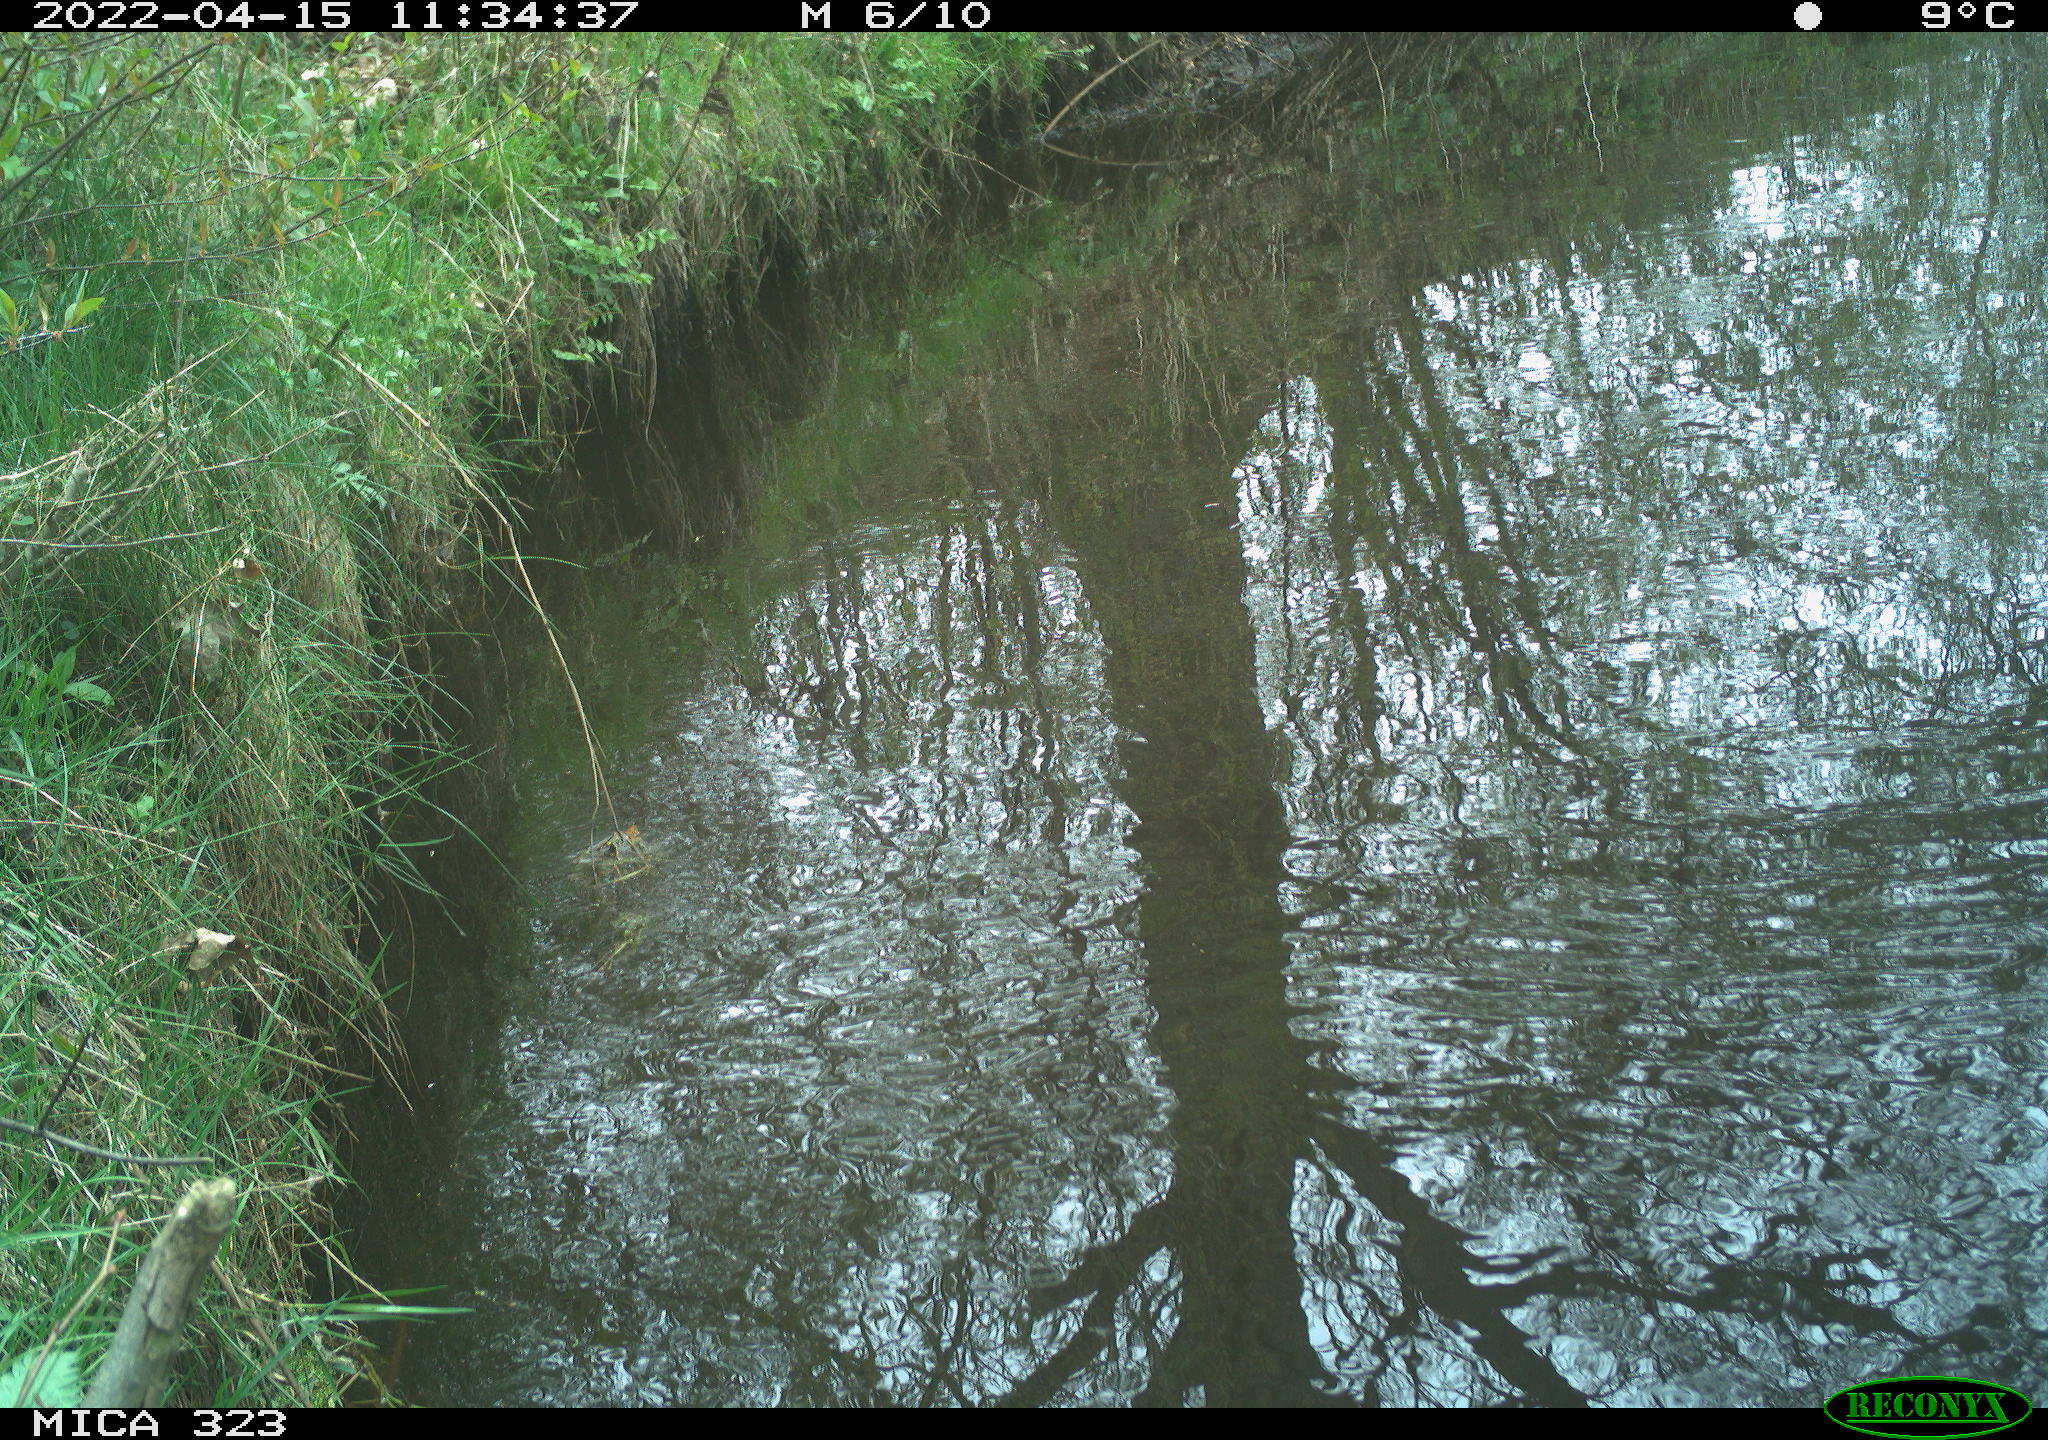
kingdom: Animalia
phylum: Chordata
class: Aves
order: Gruiformes
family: Rallidae
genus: Gallinula
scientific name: Gallinula chloropus
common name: Common moorhen
